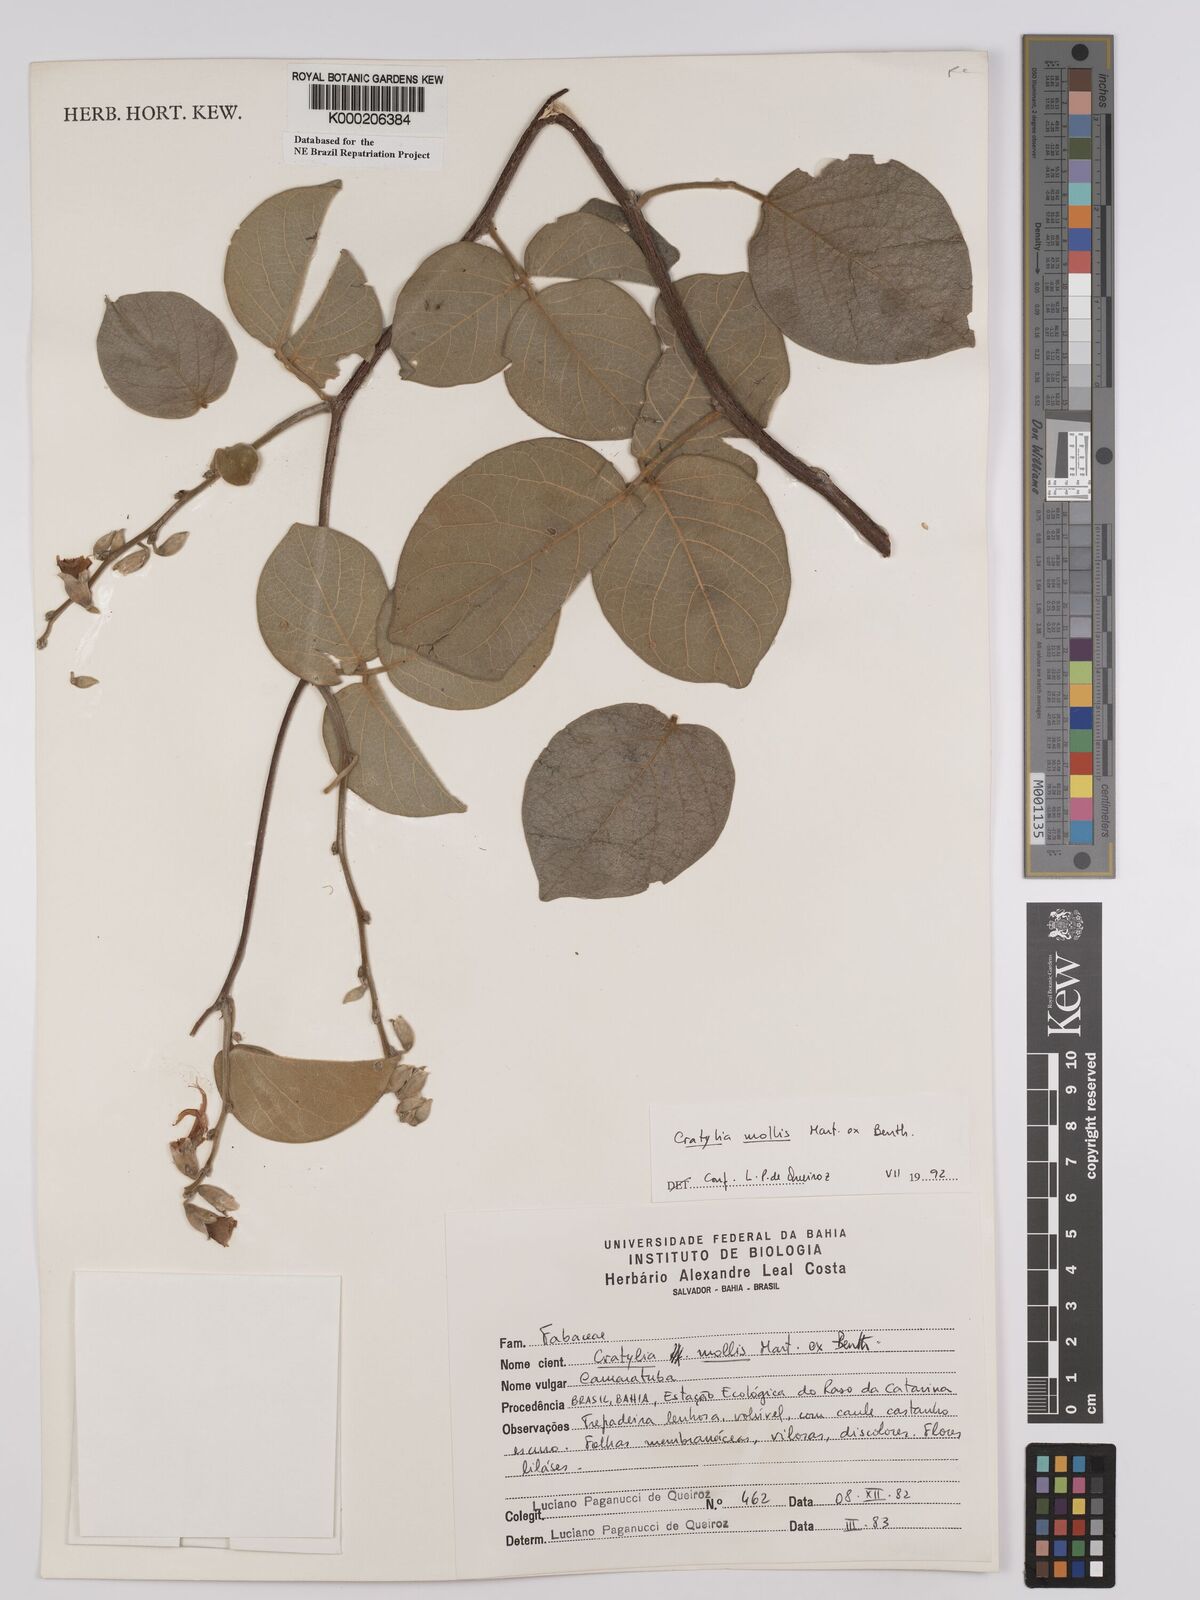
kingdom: Plantae
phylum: Tracheophyta
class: Magnoliopsida
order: Fabales
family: Fabaceae
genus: Cratylia
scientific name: Cratylia mollis
